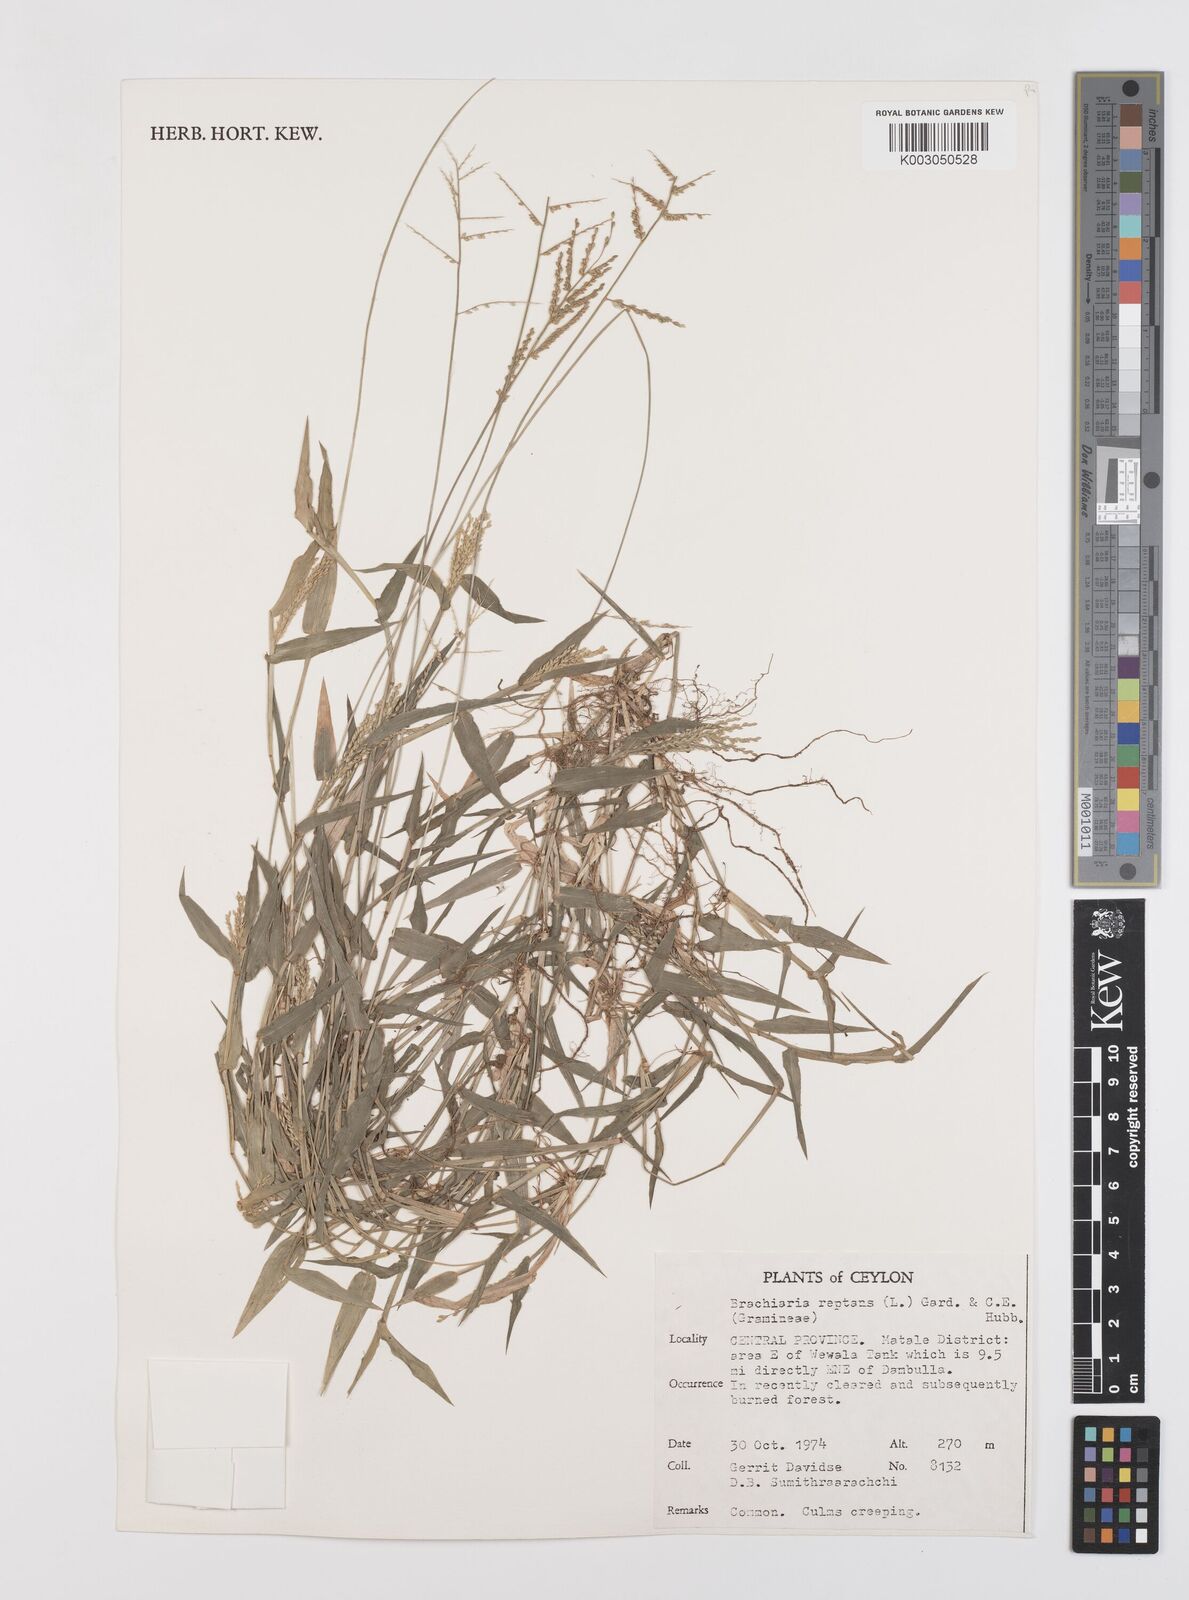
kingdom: Plantae
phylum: Tracheophyta
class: Liliopsida
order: Poales
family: Poaceae
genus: Urochloa
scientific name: Urochloa reptans
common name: Sprawling signalgrass
